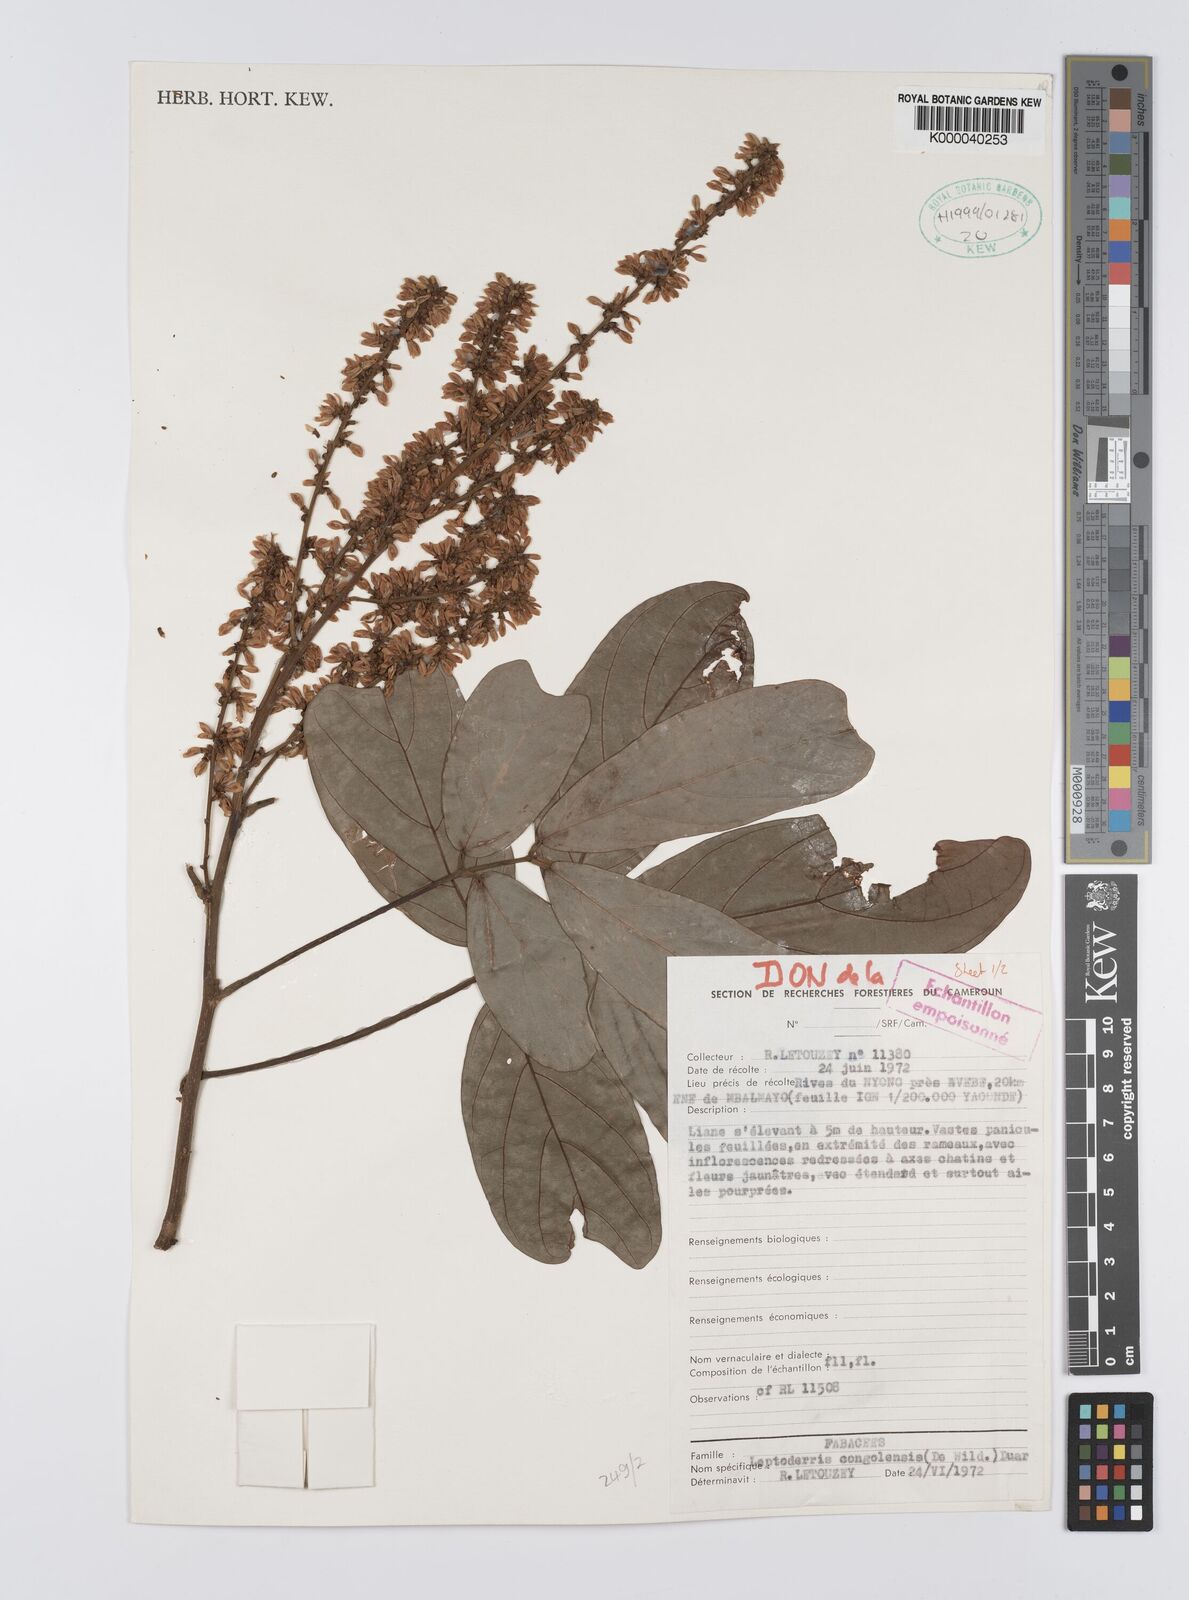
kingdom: Plantae
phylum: Tracheophyta
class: Magnoliopsida
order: Fabales
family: Fabaceae
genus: Leptoderris
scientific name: Leptoderris congolensis
